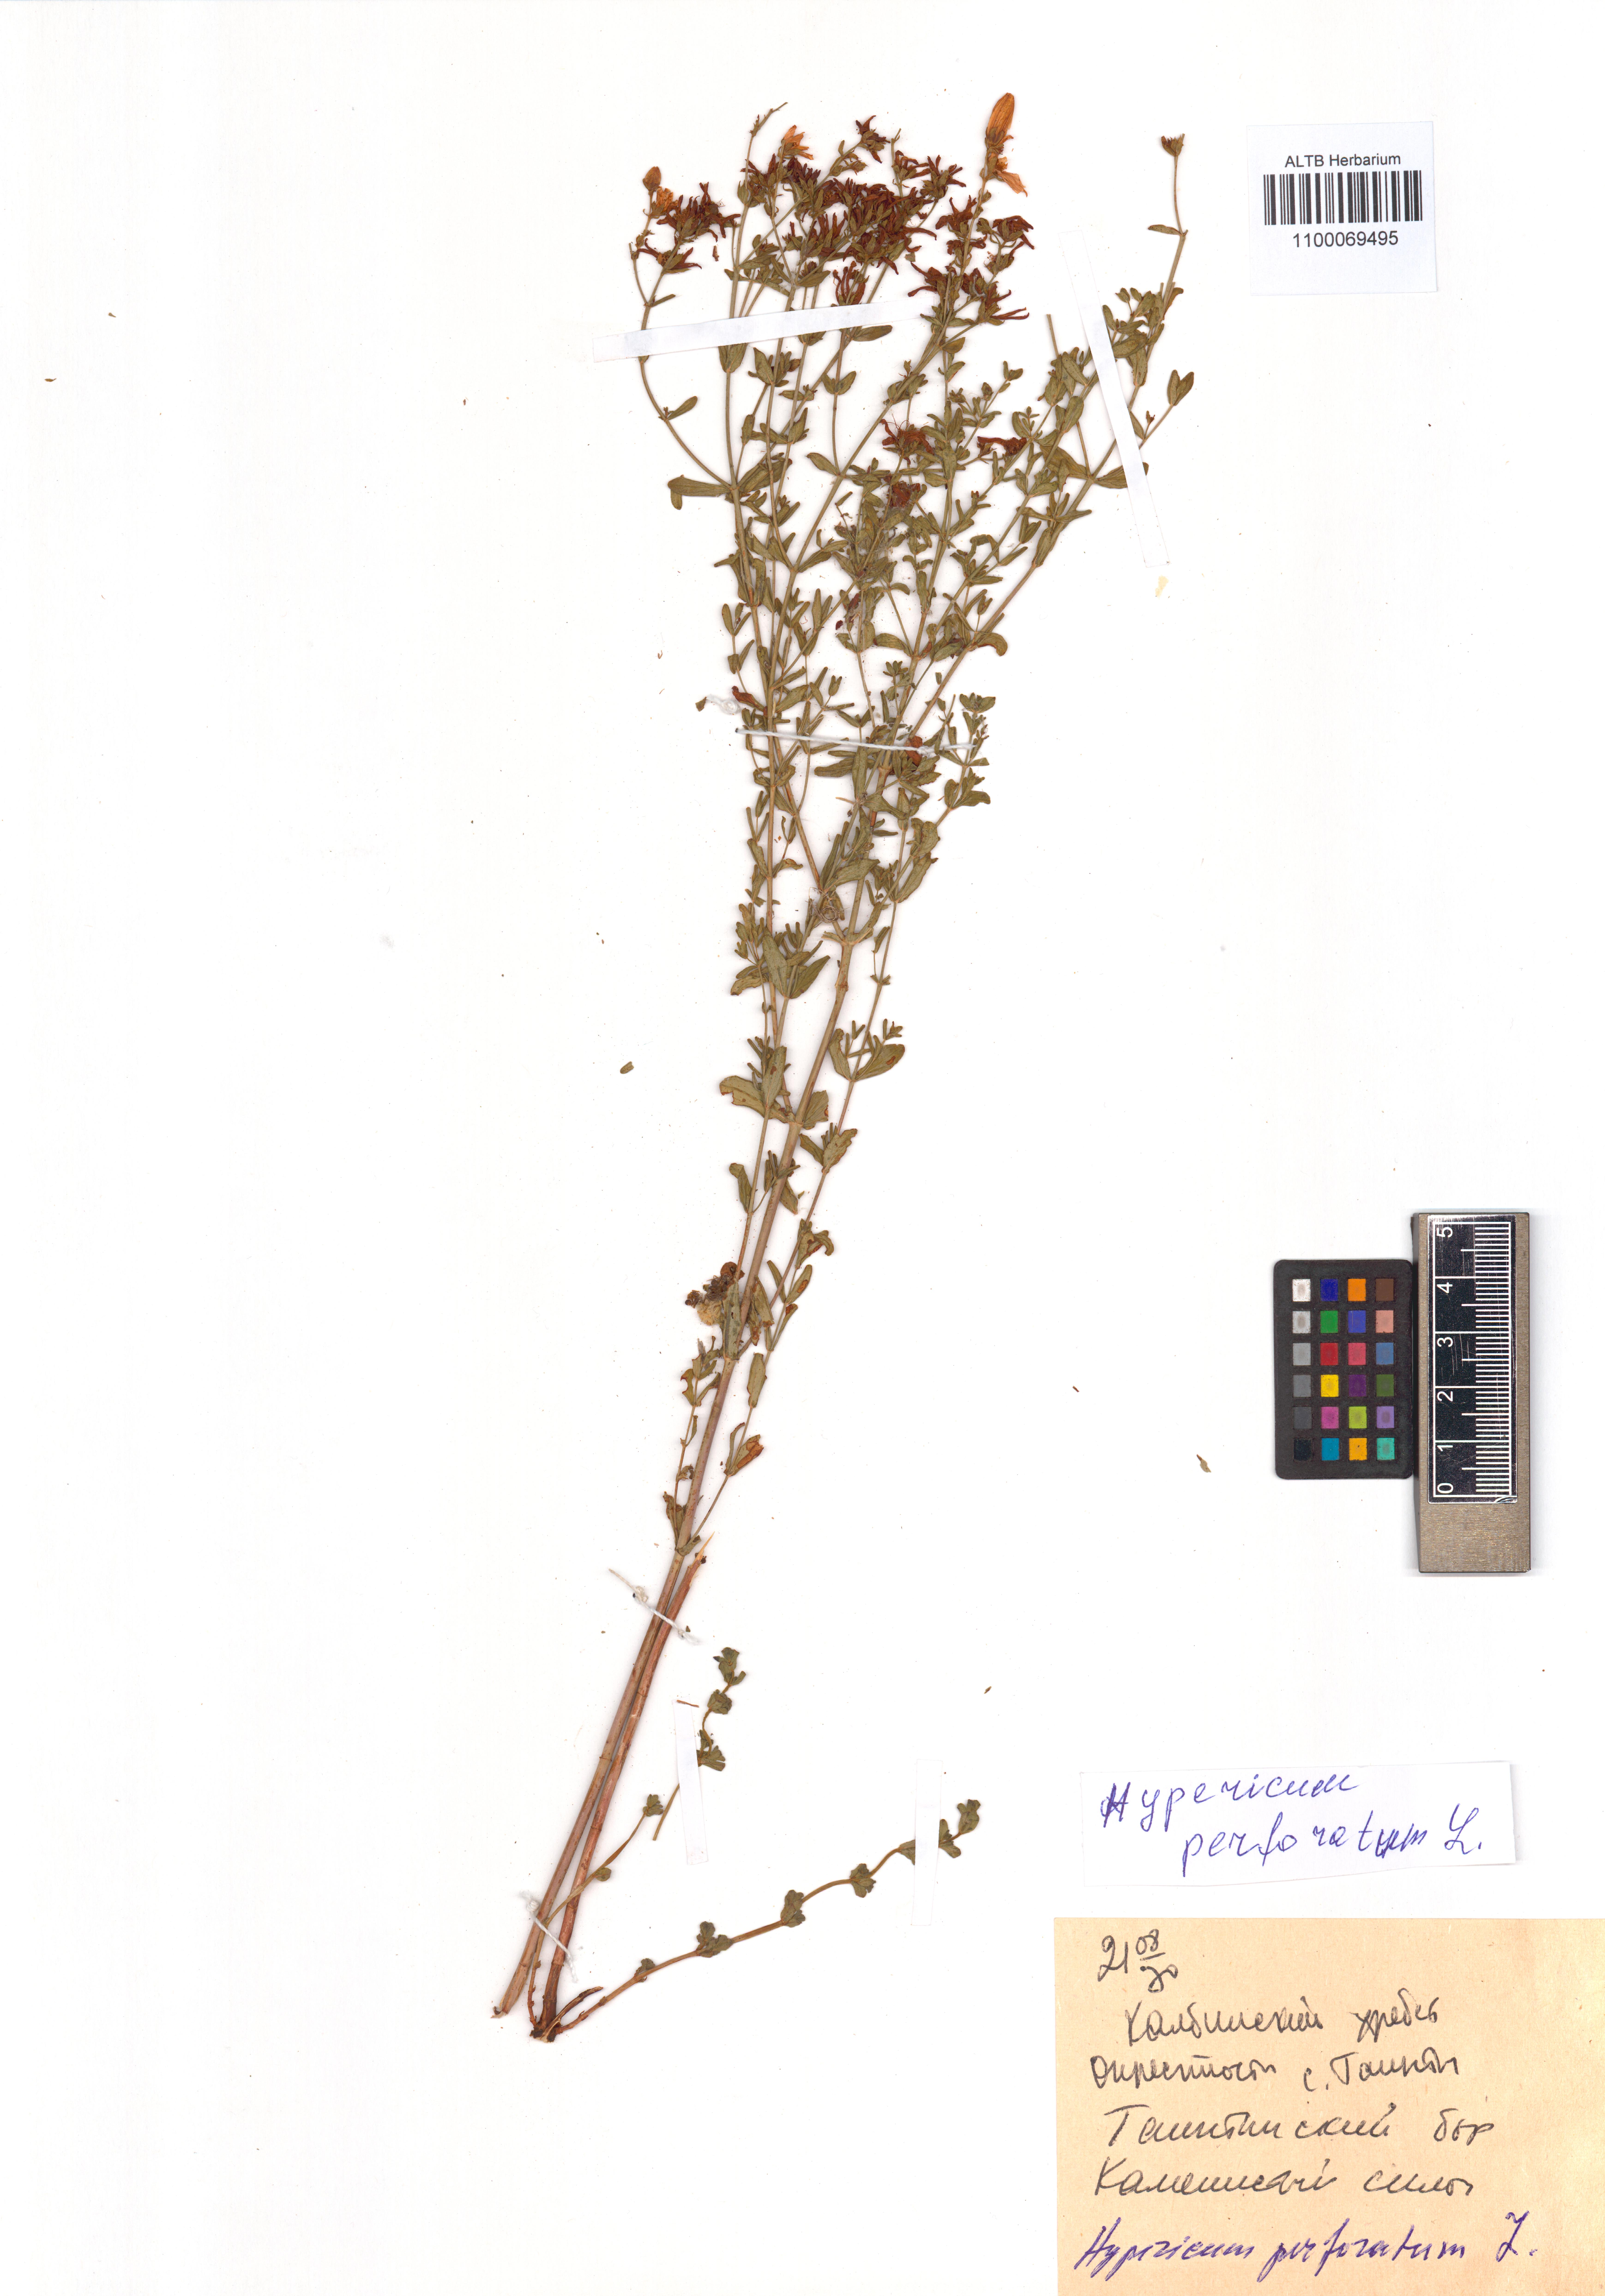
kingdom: Plantae
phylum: Tracheophyta
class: Magnoliopsida
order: Malpighiales
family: Hypericaceae
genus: Hypericum
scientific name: Hypericum perforatum
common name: Common st. johnswort
